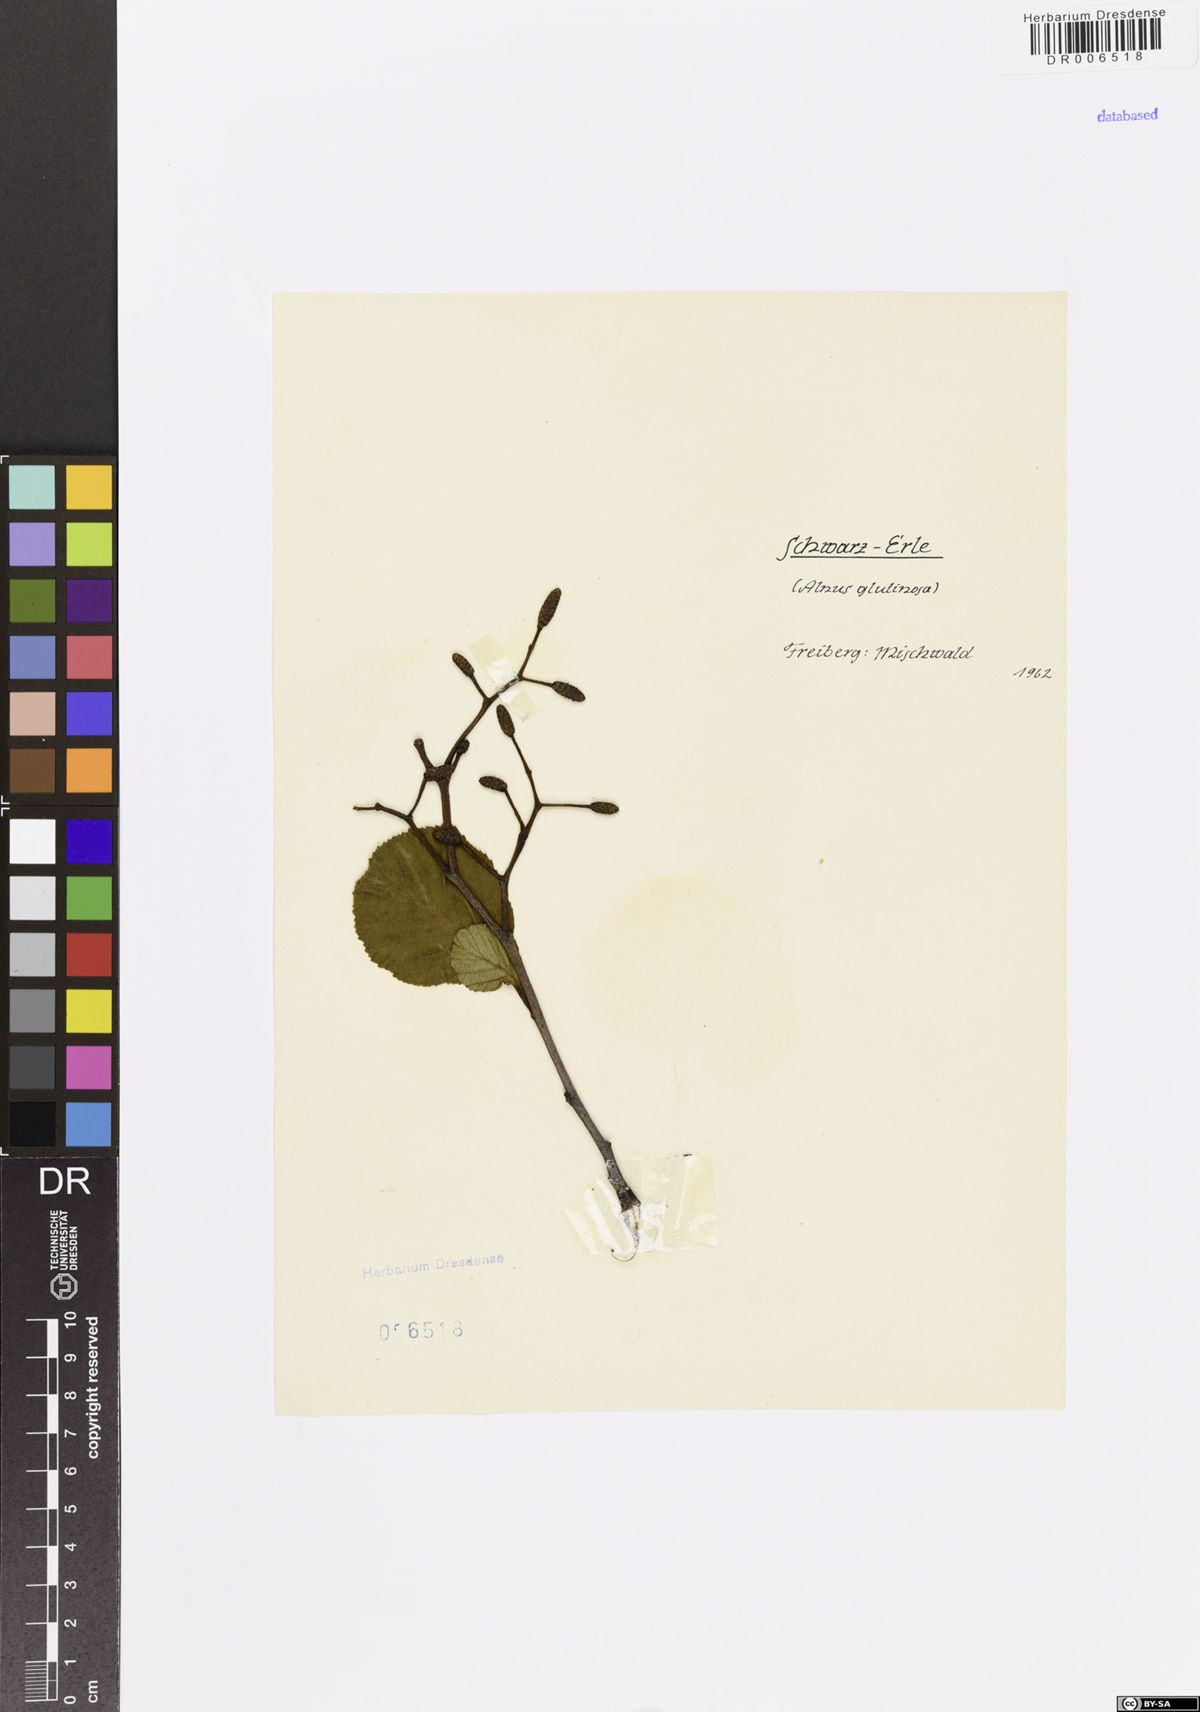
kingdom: Plantae
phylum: Tracheophyta
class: Magnoliopsida
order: Fagales
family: Betulaceae
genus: Alnus
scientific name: Alnus glutinosa
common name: Black alder
